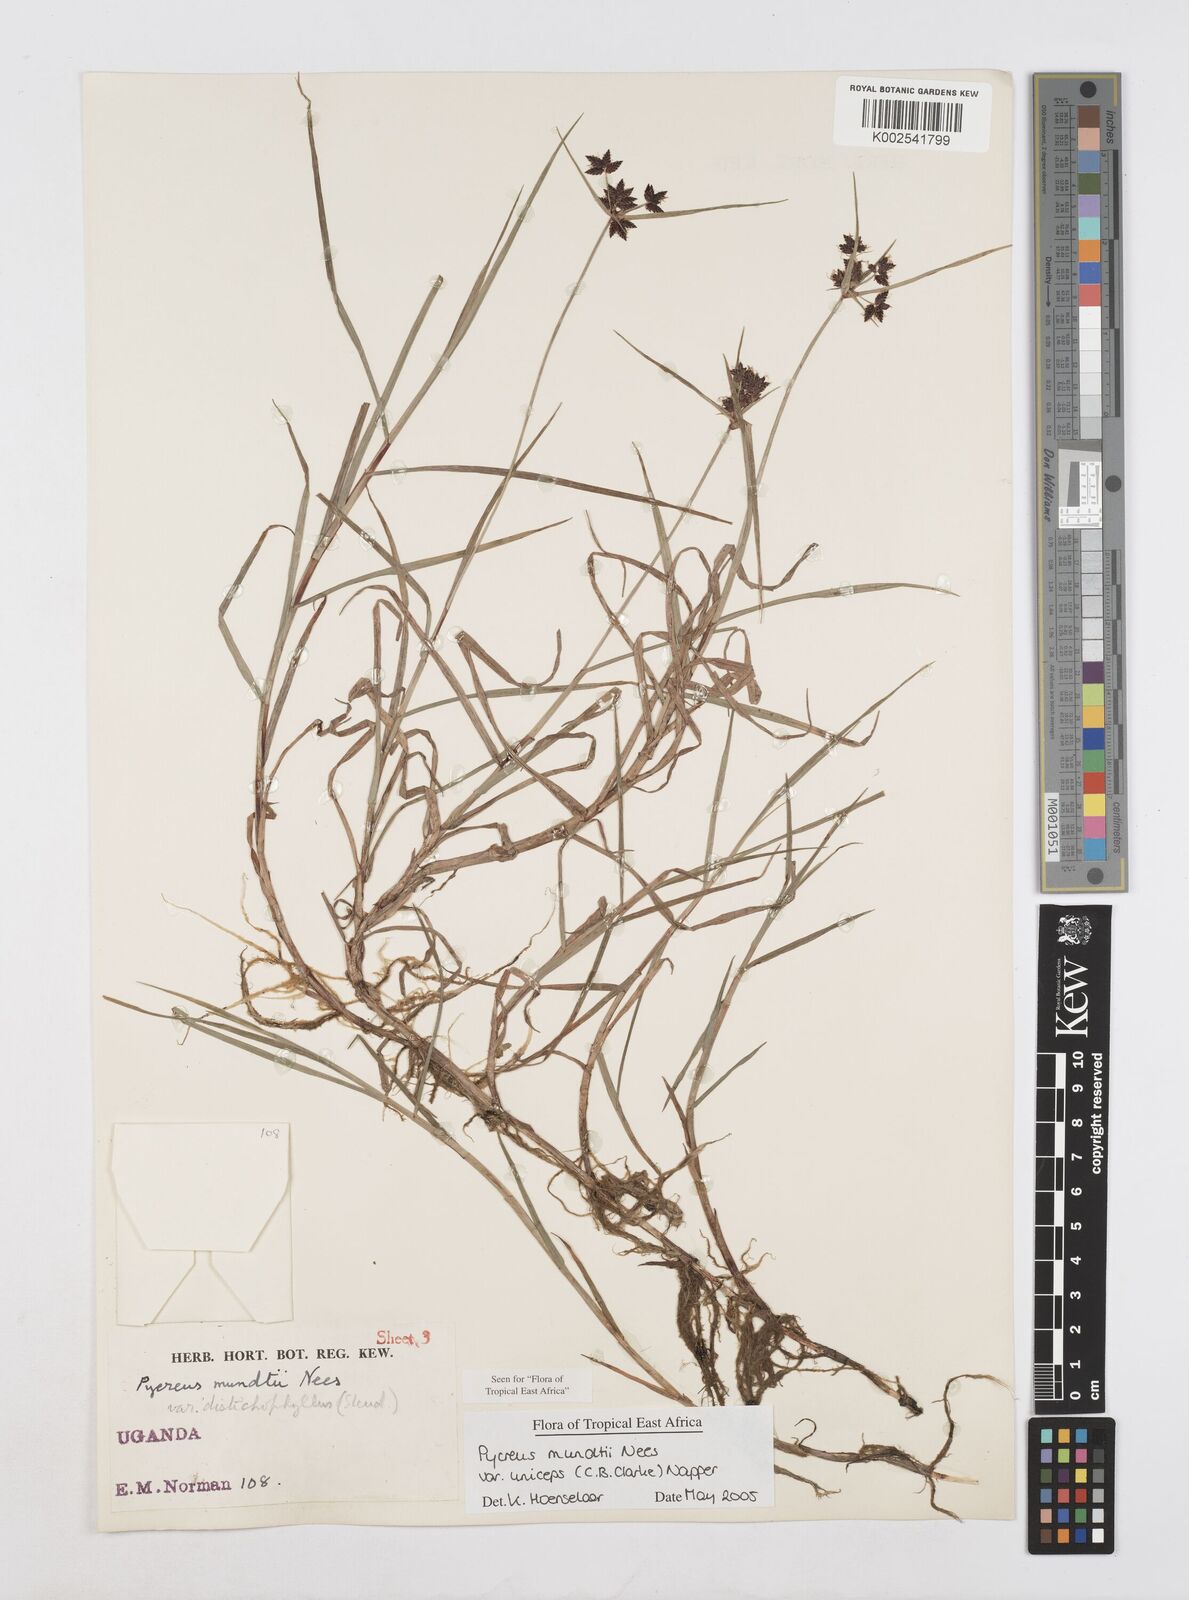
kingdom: Plantae
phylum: Tracheophyta
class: Liliopsida
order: Poales
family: Cyperaceae
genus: Cyperus
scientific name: Cyperus mundii
